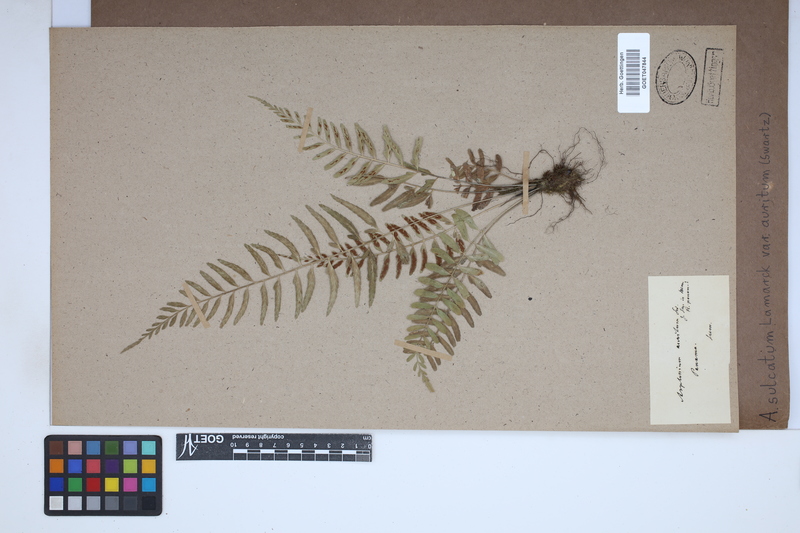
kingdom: Plantae
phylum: Tracheophyta
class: Polypodiopsida
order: Polypodiales
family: Aspleniaceae
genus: Asplenium
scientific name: Asplenium auritum
